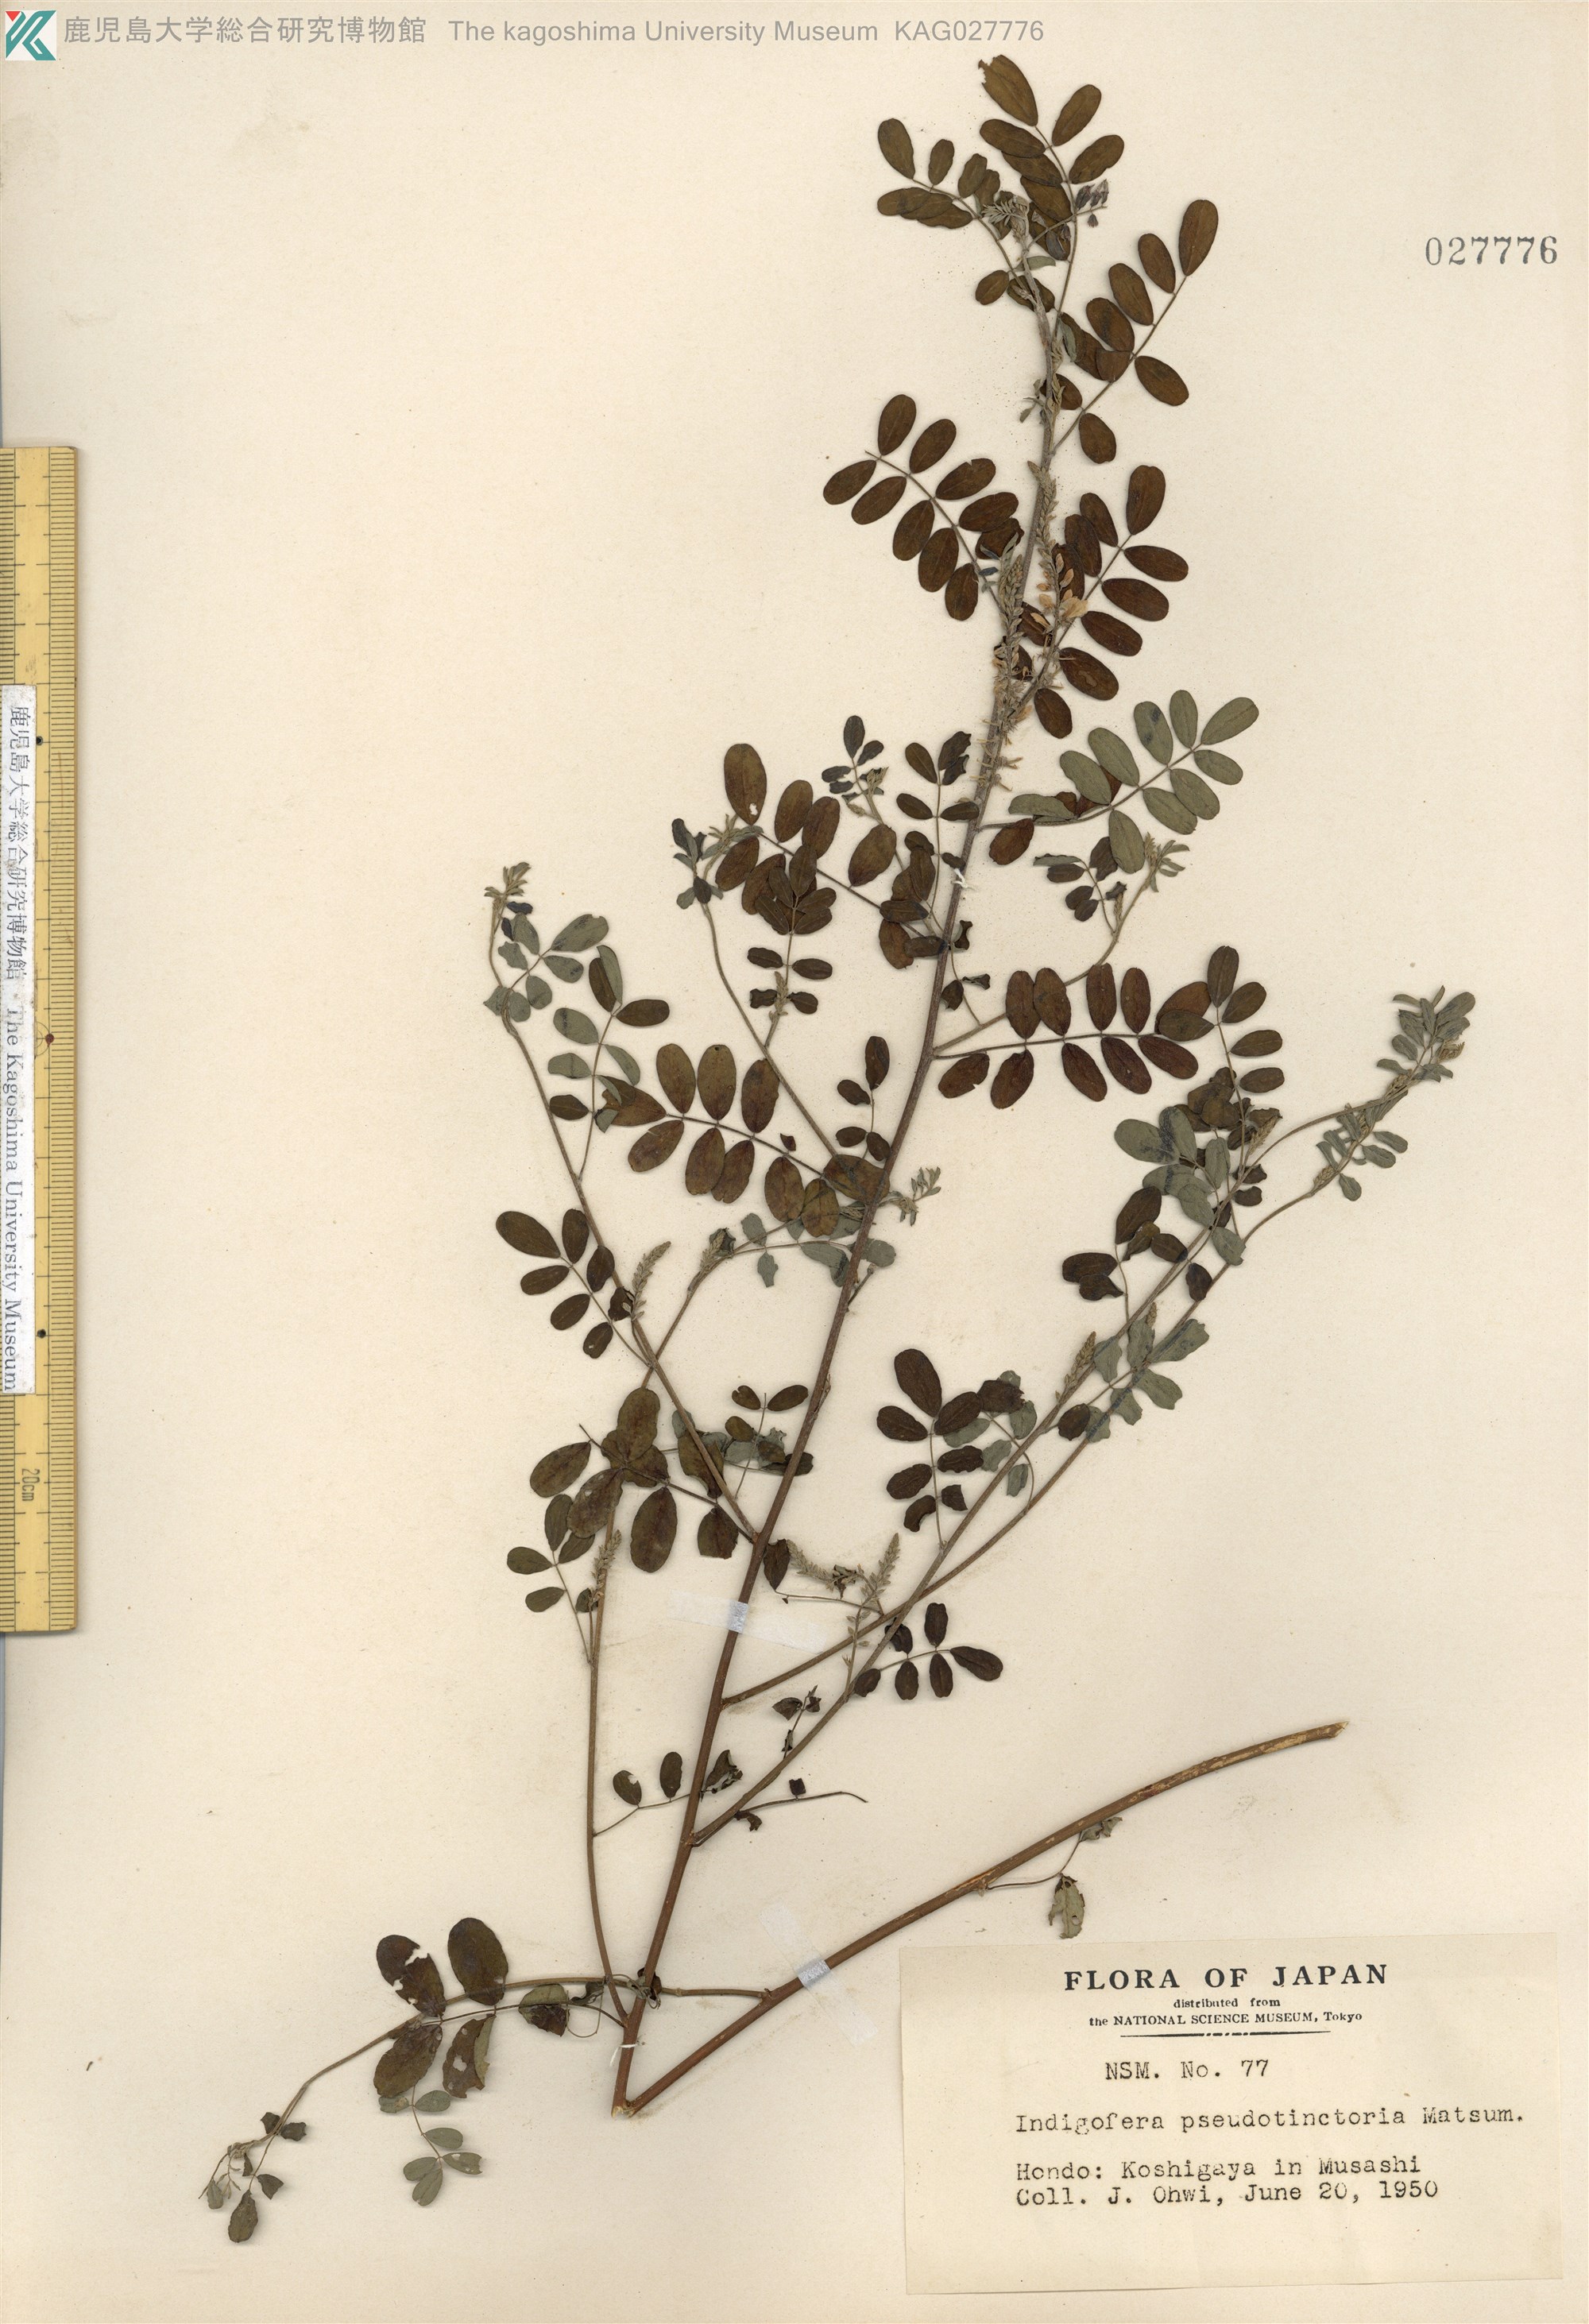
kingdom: Plantae
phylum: Tracheophyta
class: Magnoliopsida
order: Fabales
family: Fabaceae
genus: Indigofera
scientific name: Indigofera bungeana
